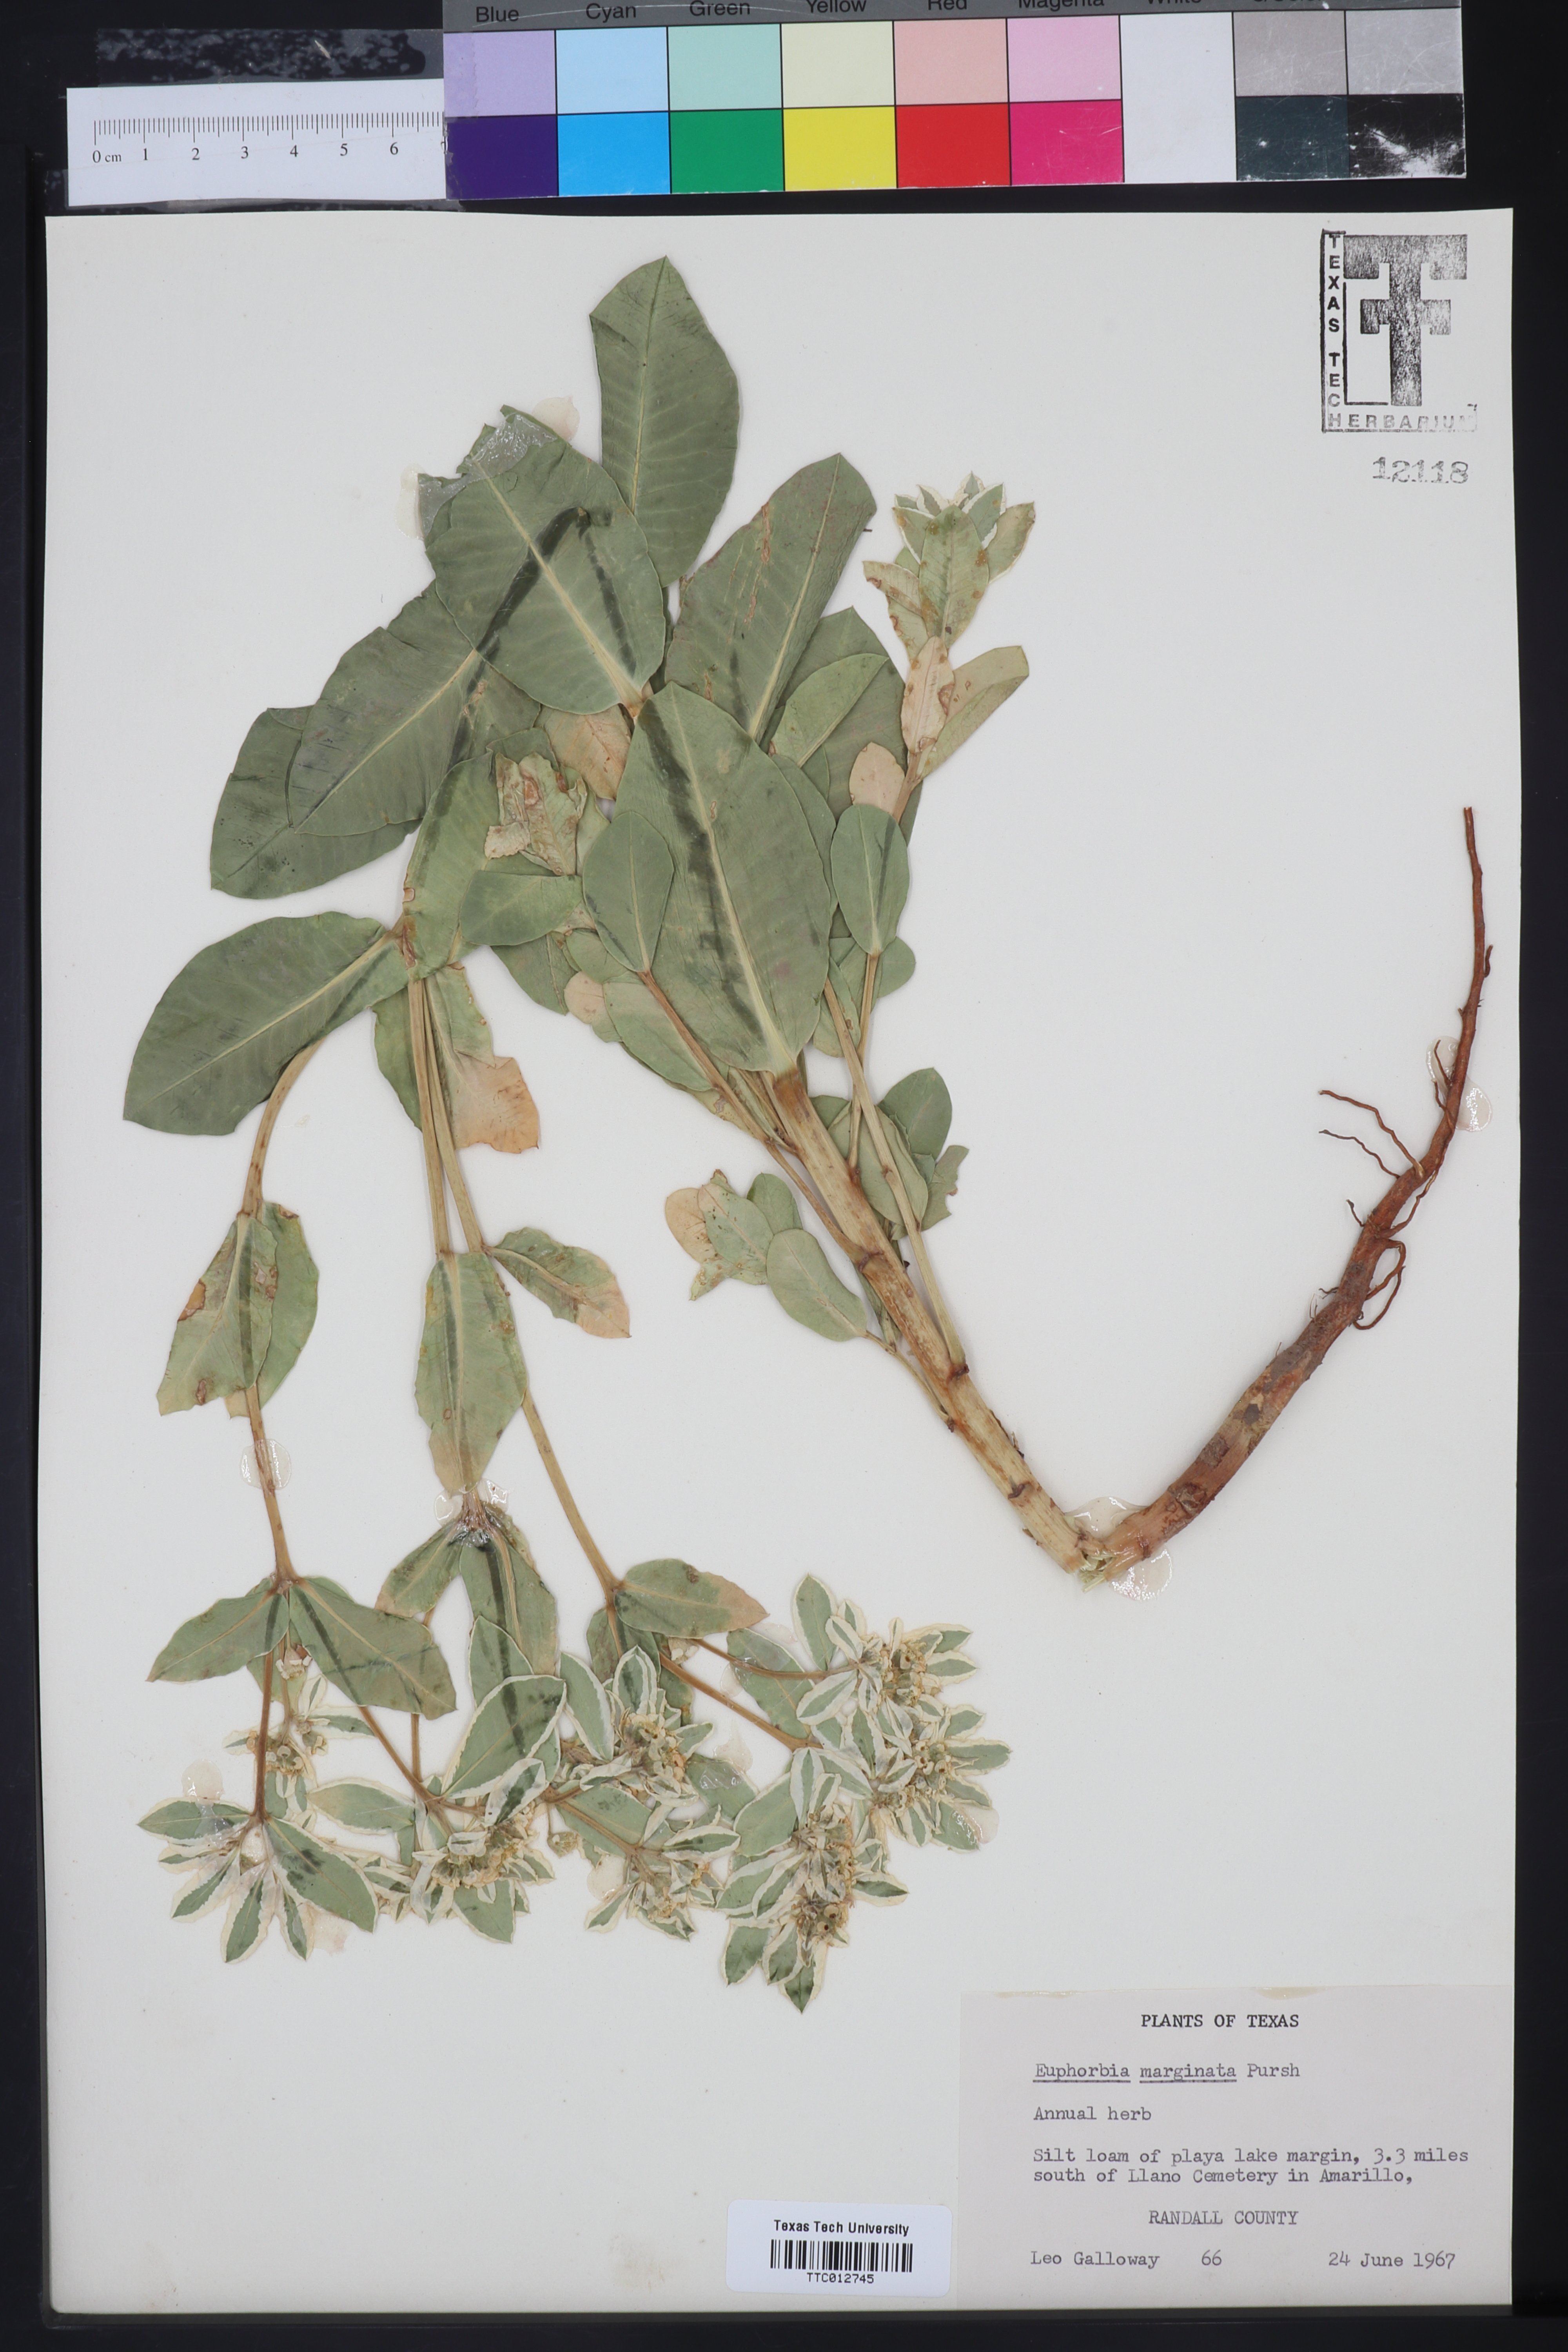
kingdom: Plantae
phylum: Tracheophyta
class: Magnoliopsida
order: Malpighiales
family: Euphorbiaceae
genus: Euphorbia
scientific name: Euphorbia marginata
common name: Ghostweed
